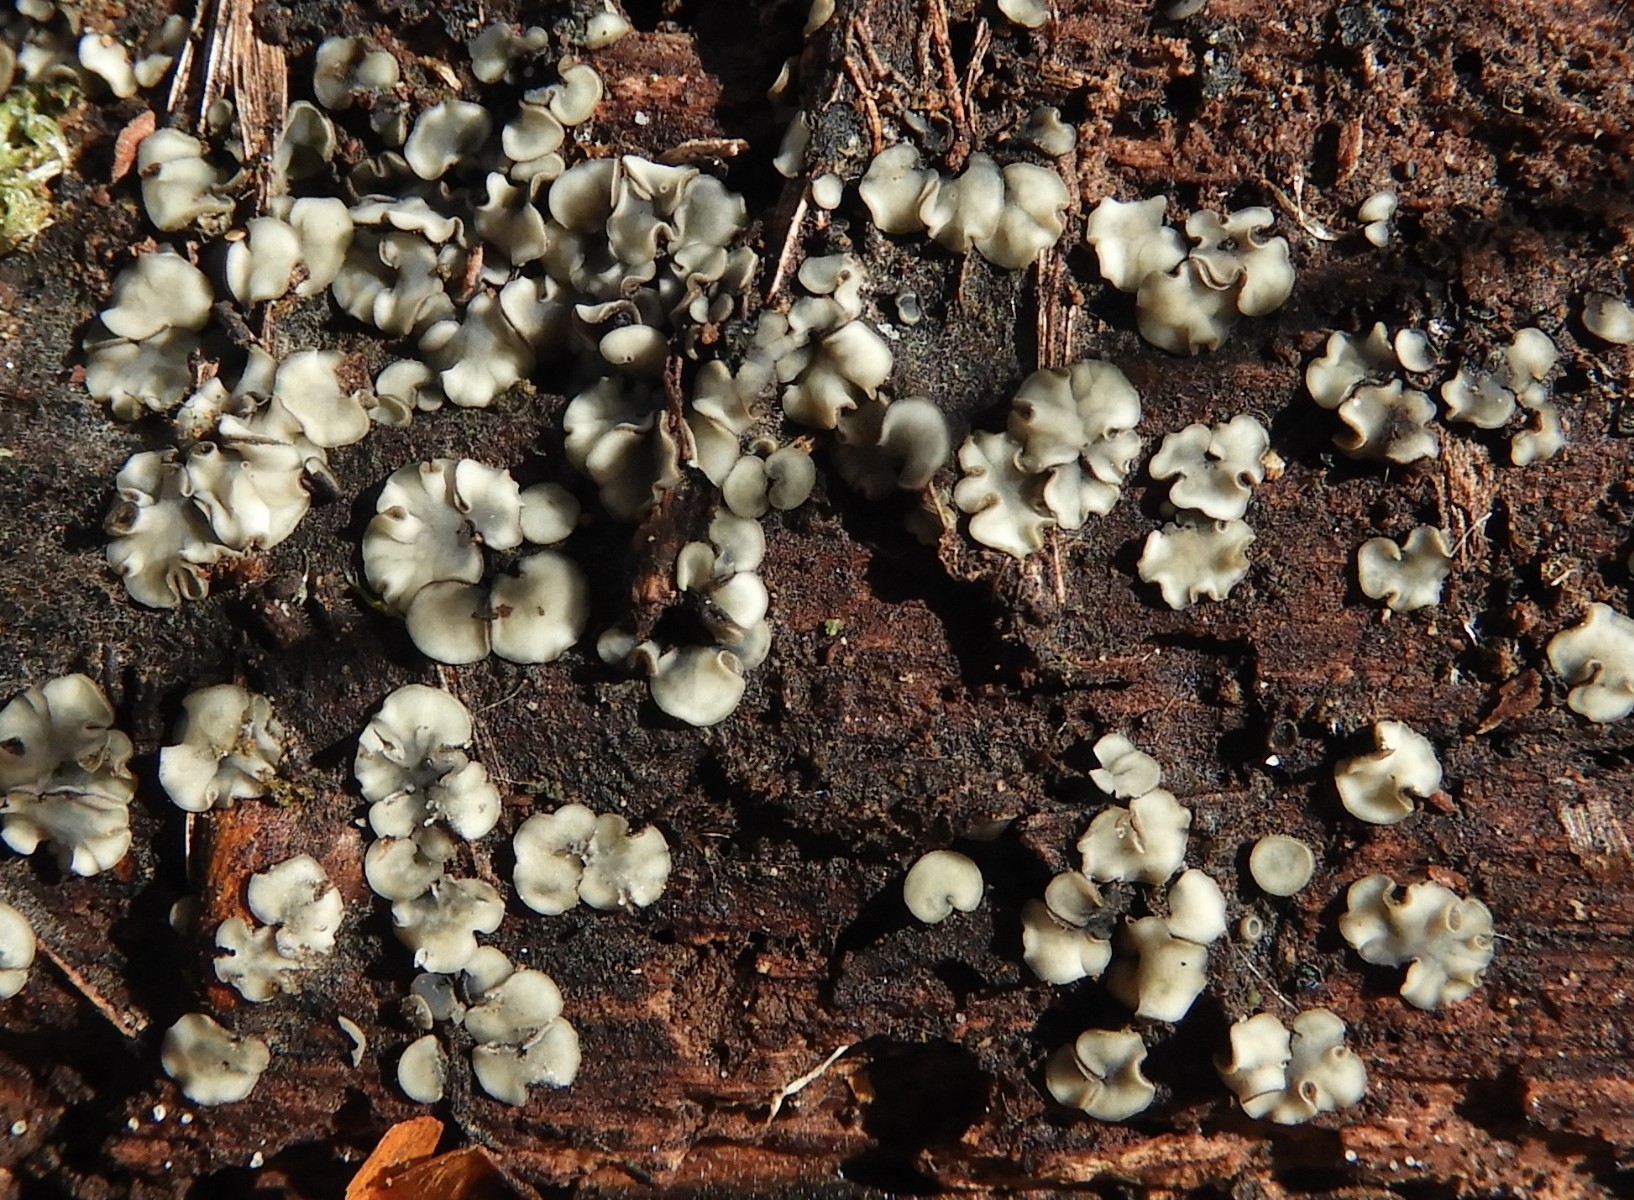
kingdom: Fungi
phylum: Ascomycota
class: Leotiomycetes
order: Helotiales
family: Mollisiaceae
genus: Mollisia
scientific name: Mollisia
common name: gråskive
